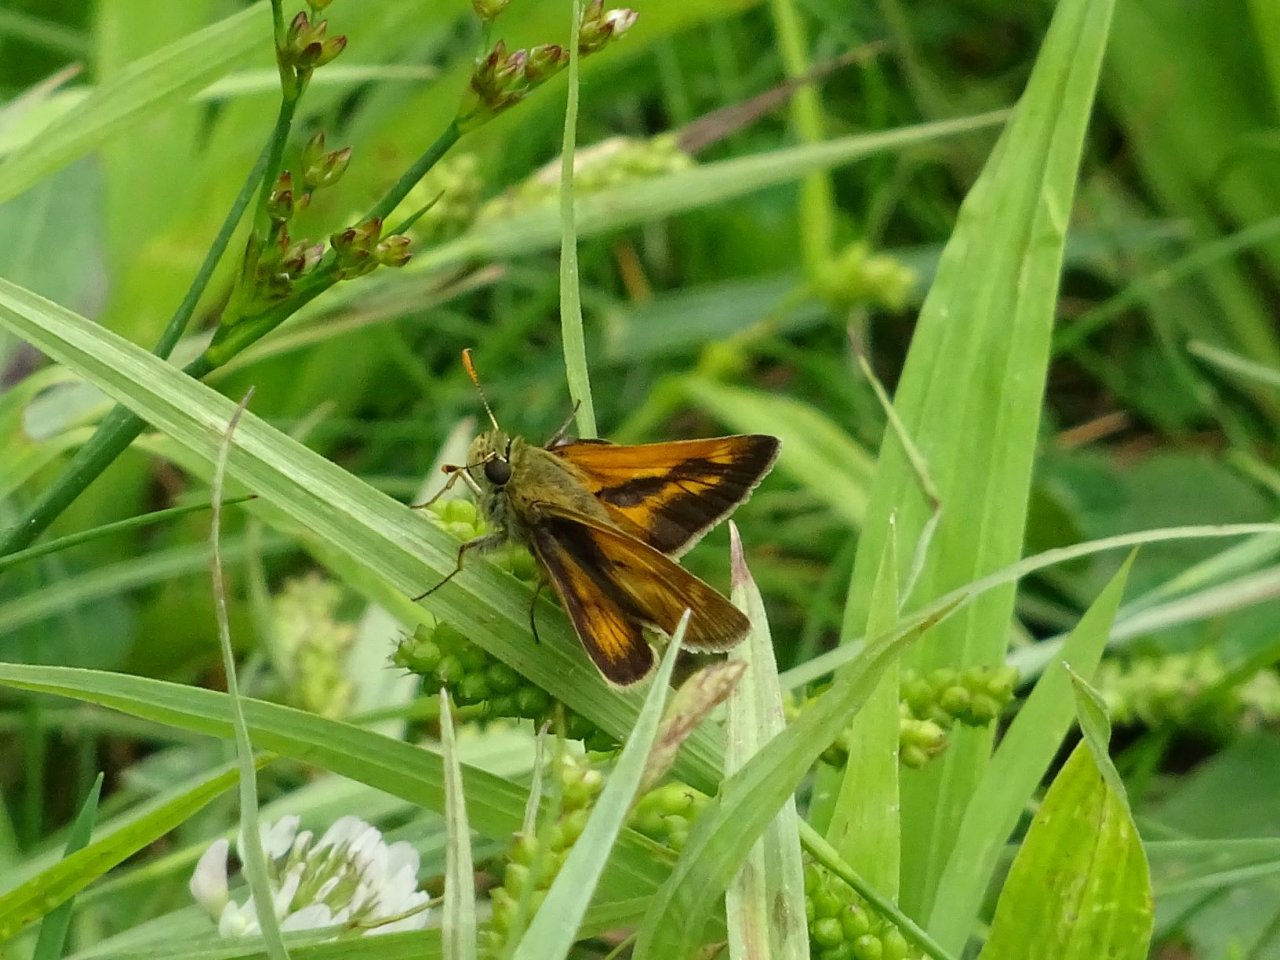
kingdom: Animalia
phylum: Arthropoda
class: Insecta
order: Lepidoptera
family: Hesperiidae
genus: Polites
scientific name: Polites
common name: Long Dash Skipper
